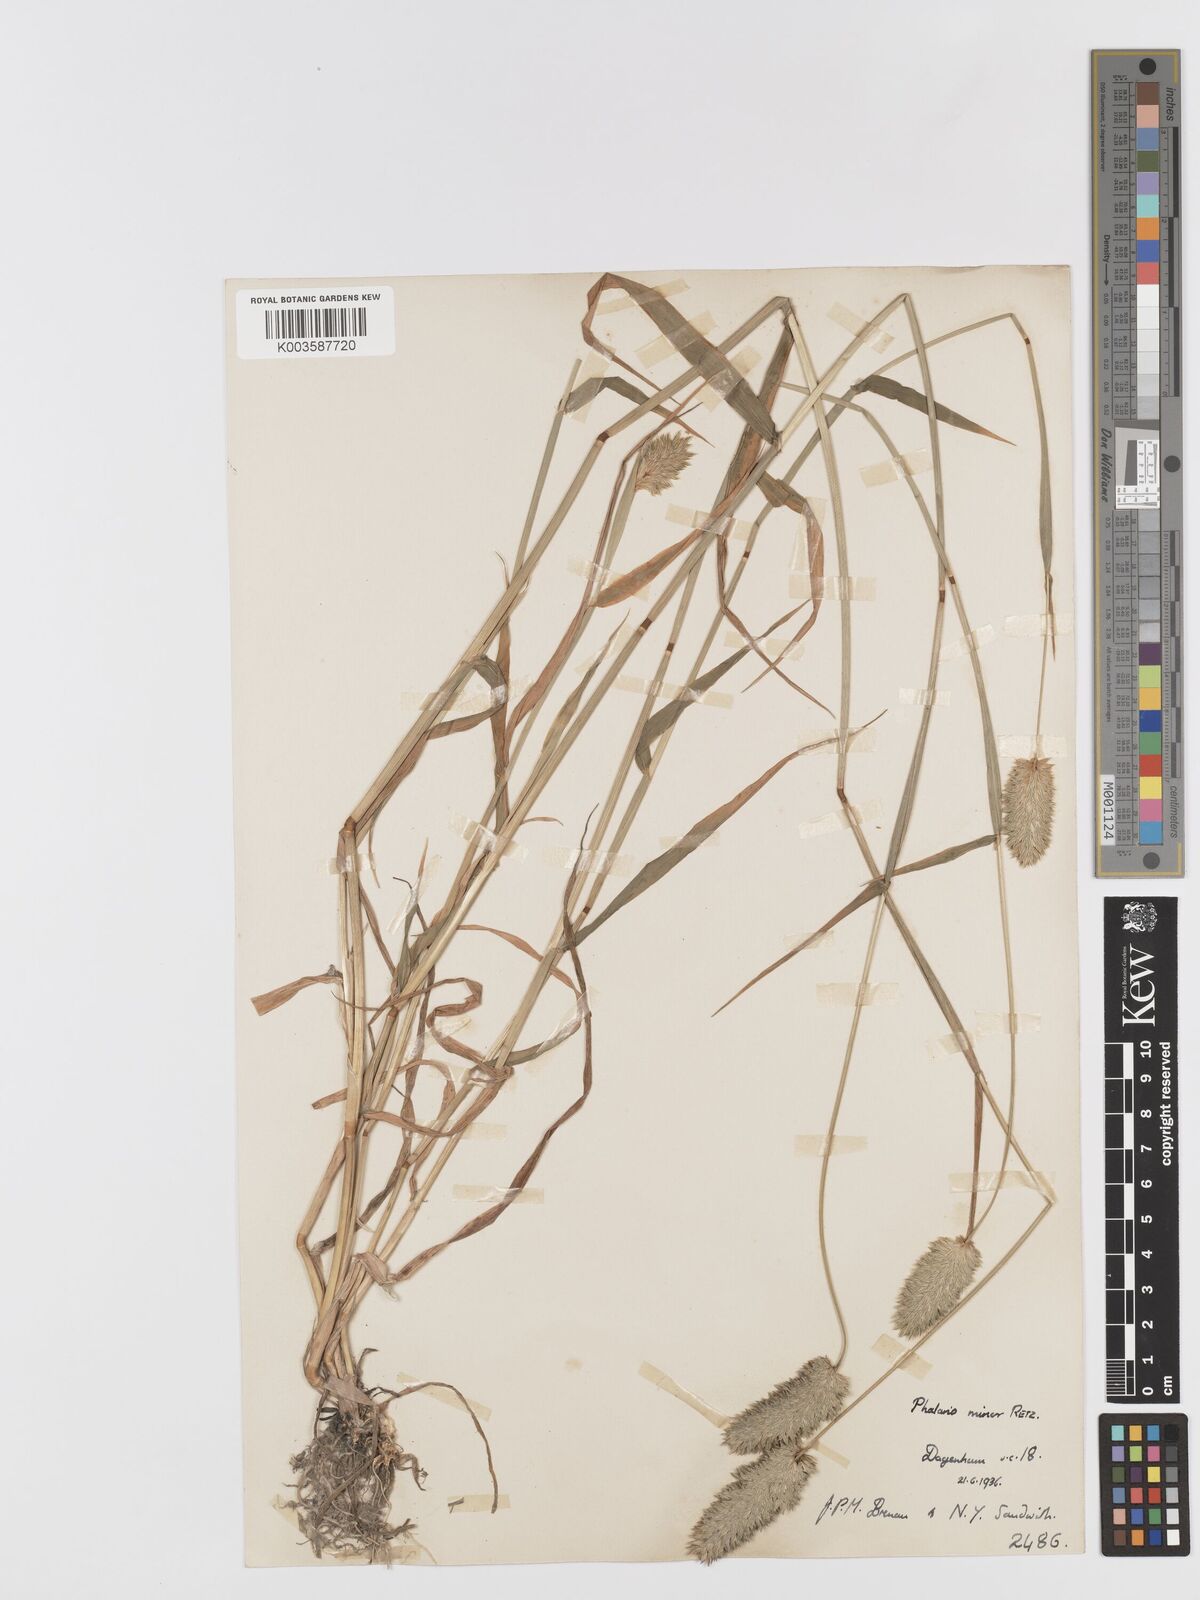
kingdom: Plantae
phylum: Tracheophyta
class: Liliopsida
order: Poales
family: Poaceae
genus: Phalaris
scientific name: Phalaris minor
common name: Littleseed canarygrass
